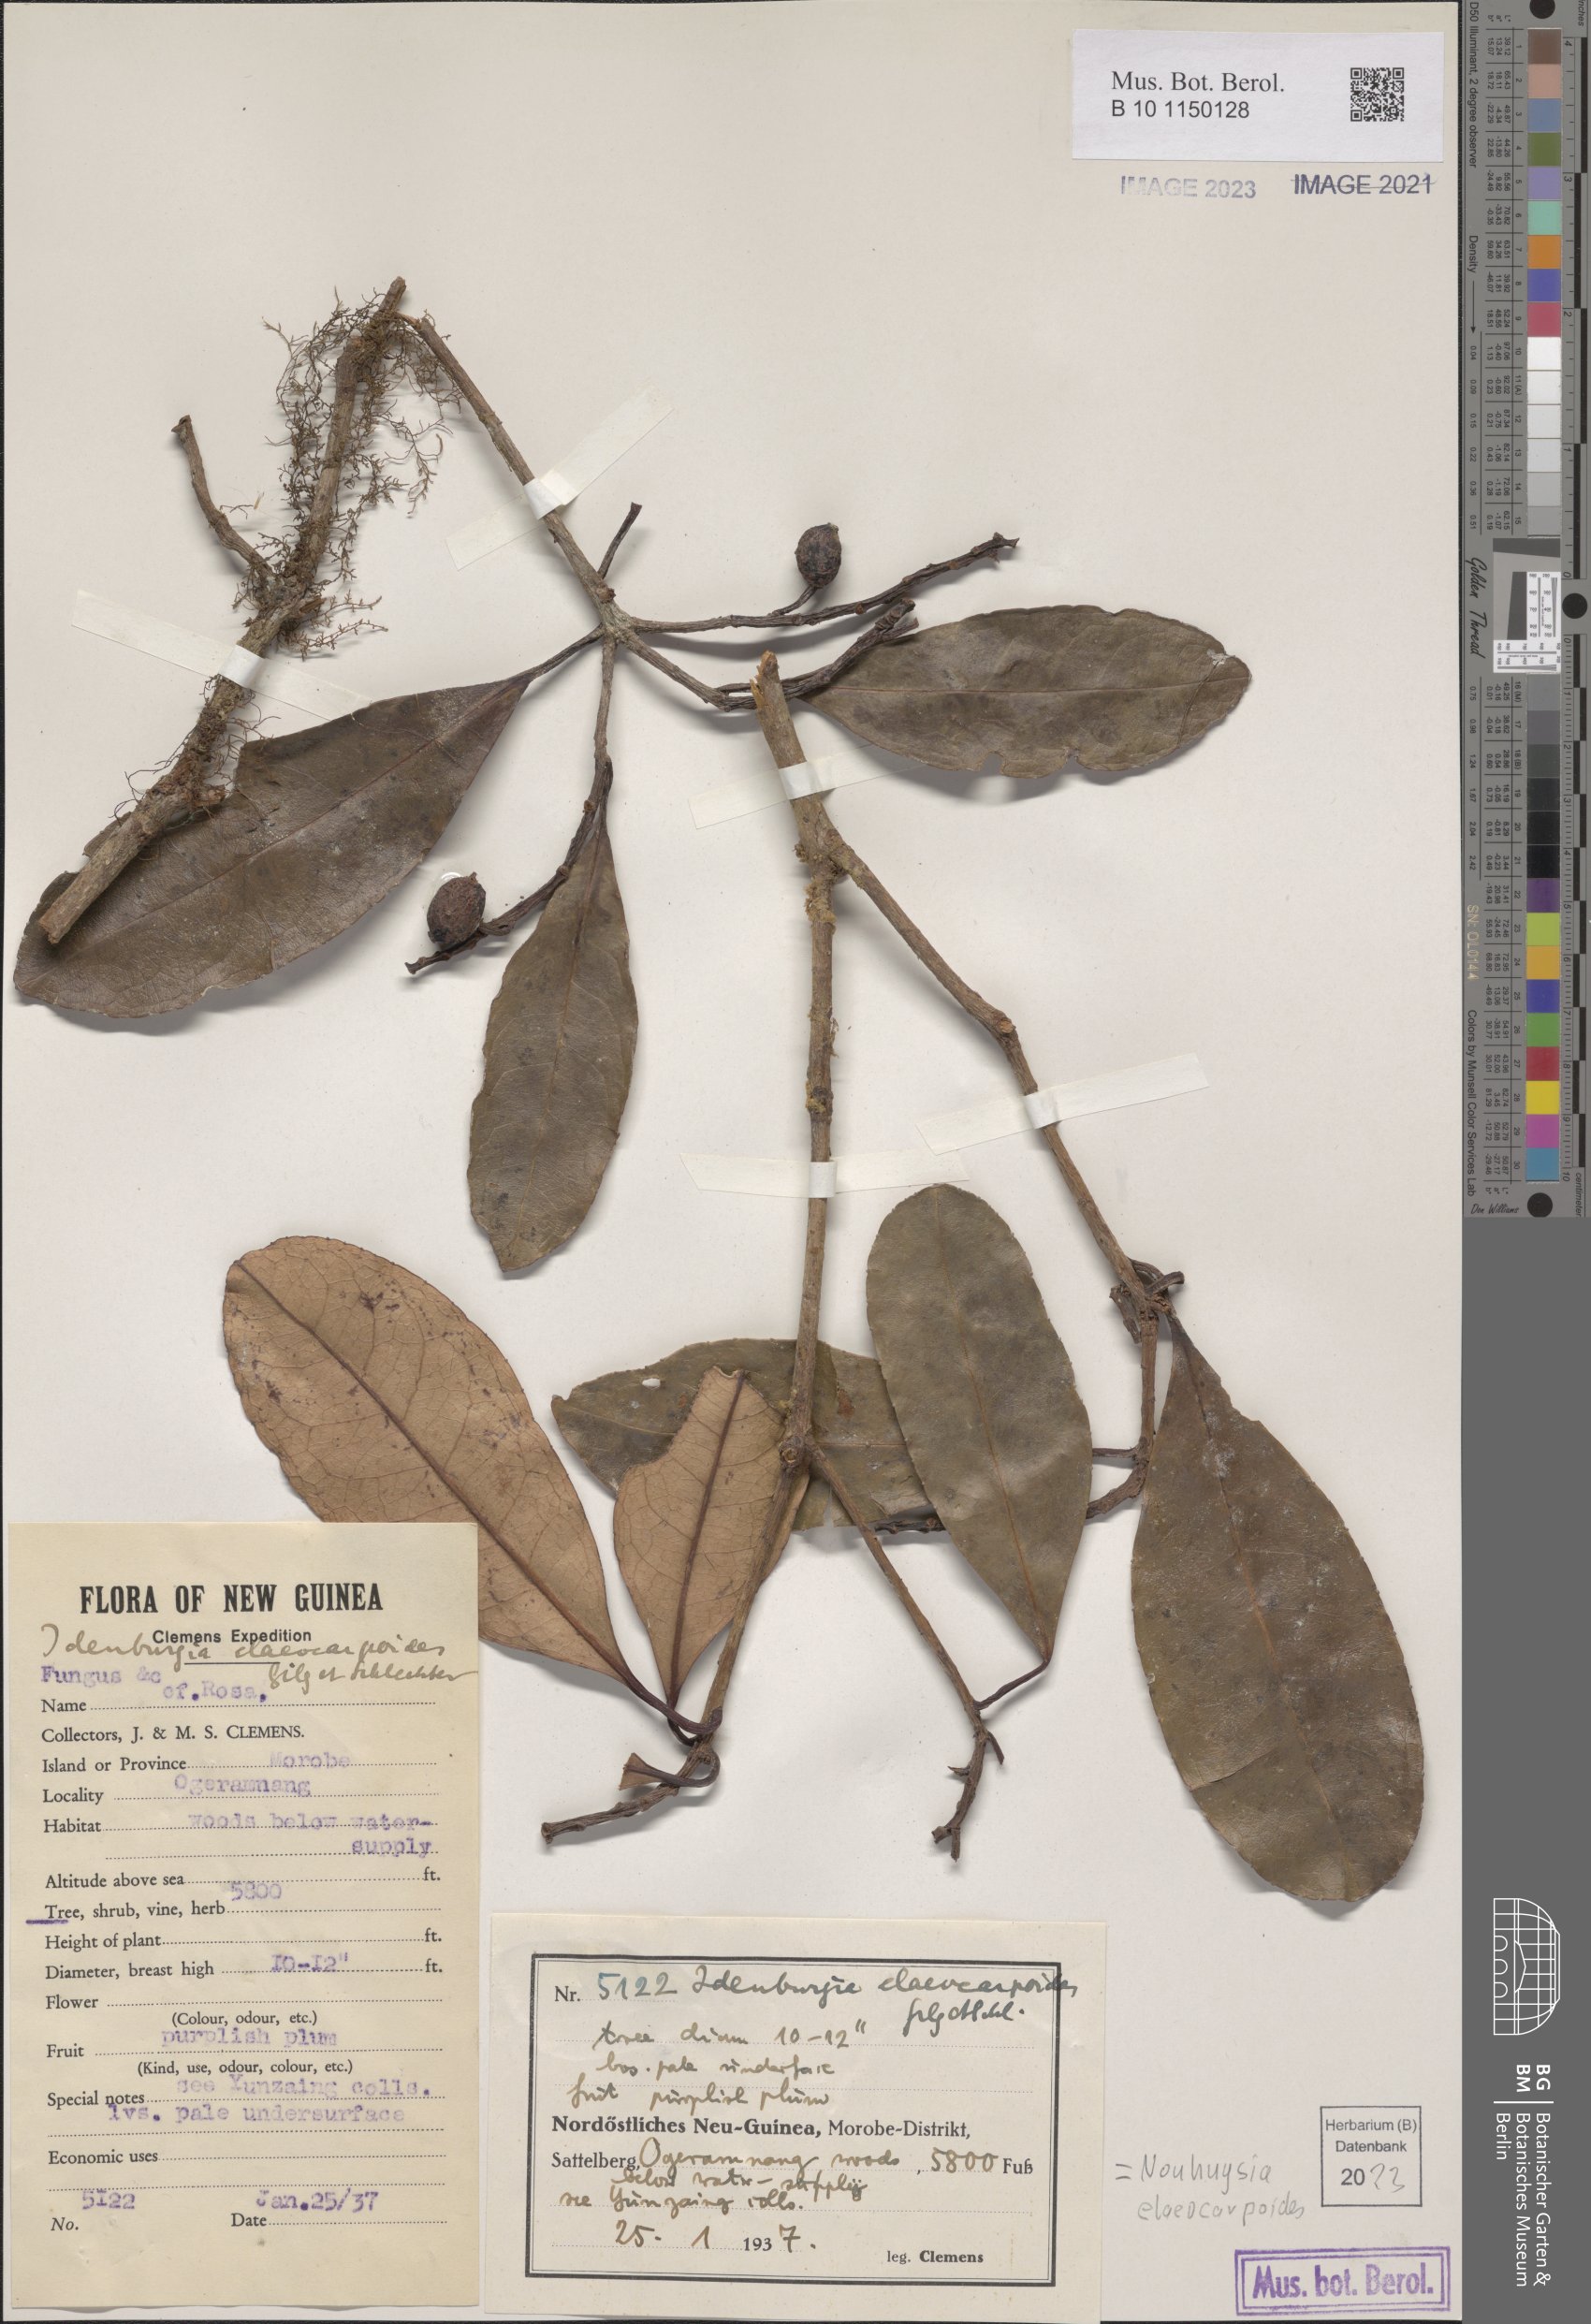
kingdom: Plantae
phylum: Tracheophyta
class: Magnoliopsida
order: Paracryphiales
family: Paracryphiaceae
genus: Sphenostemon
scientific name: Sphenostemon papuanus
